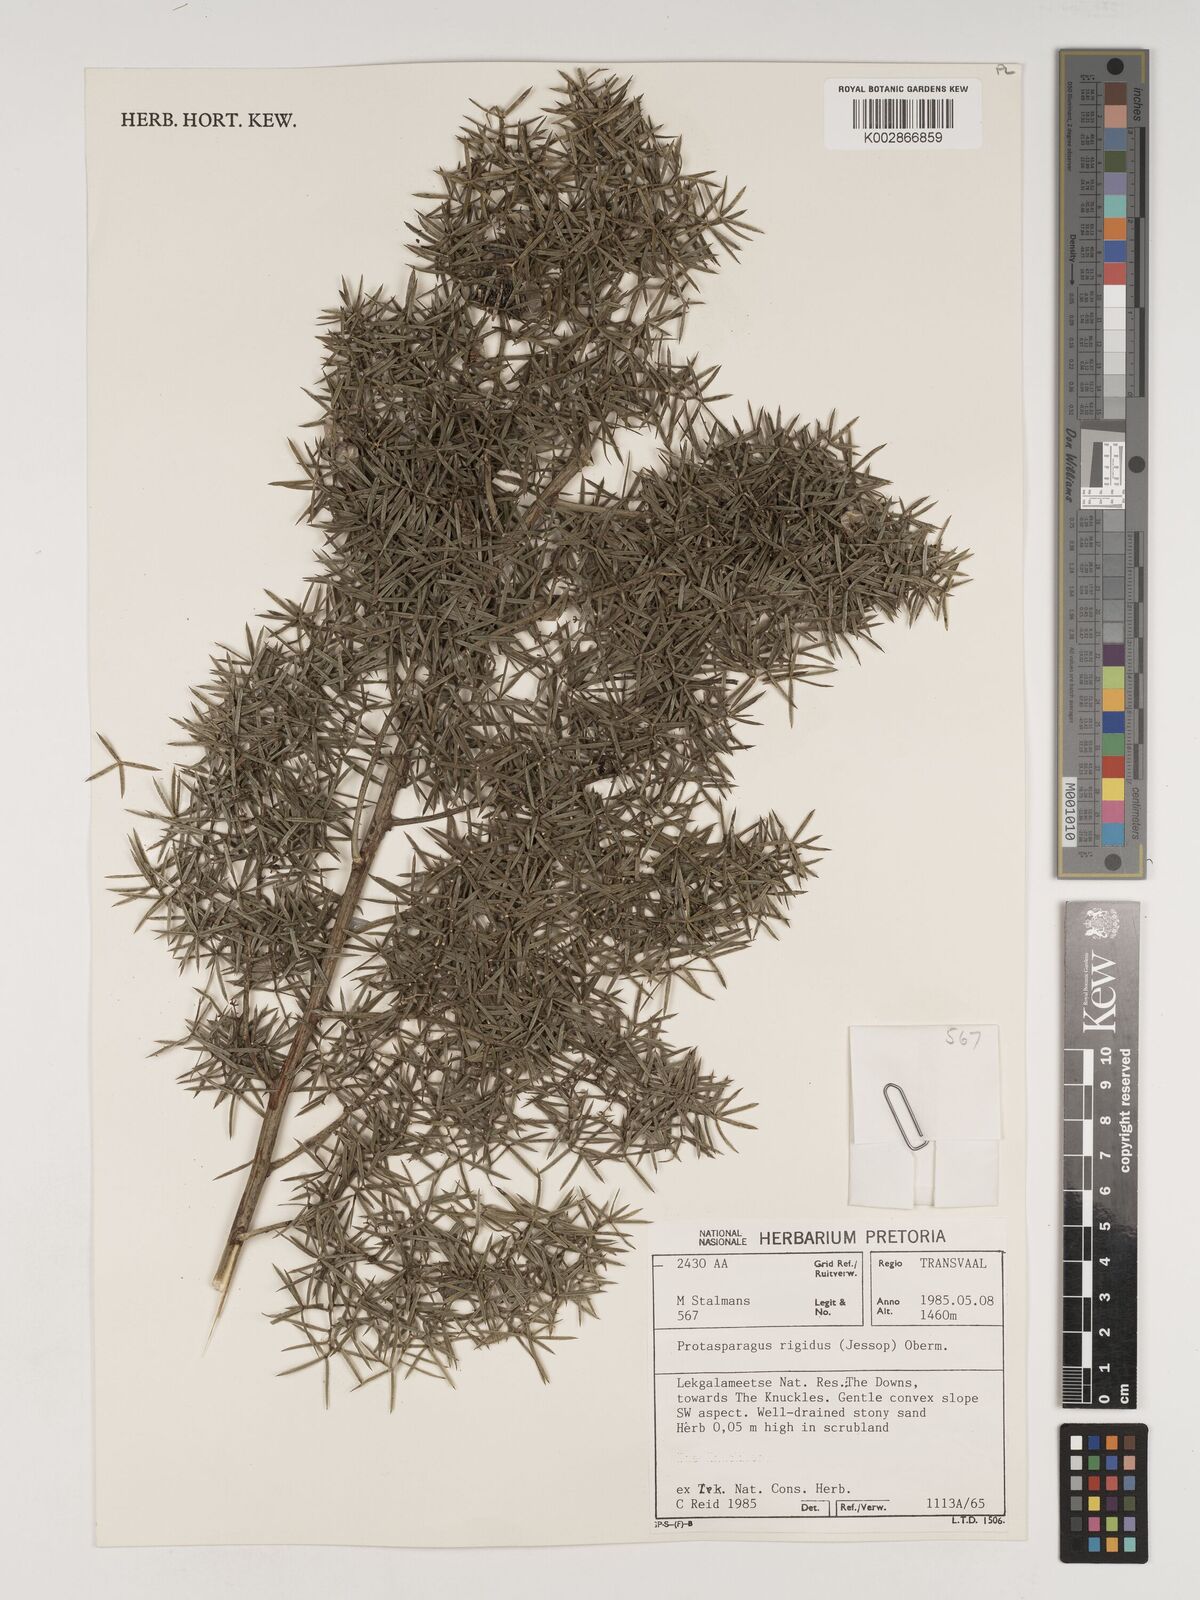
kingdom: Plantae
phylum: Tracheophyta
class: Liliopsida
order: Asparagales
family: Asparagaceae
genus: Asparagus
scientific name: Asparagus rigidus
